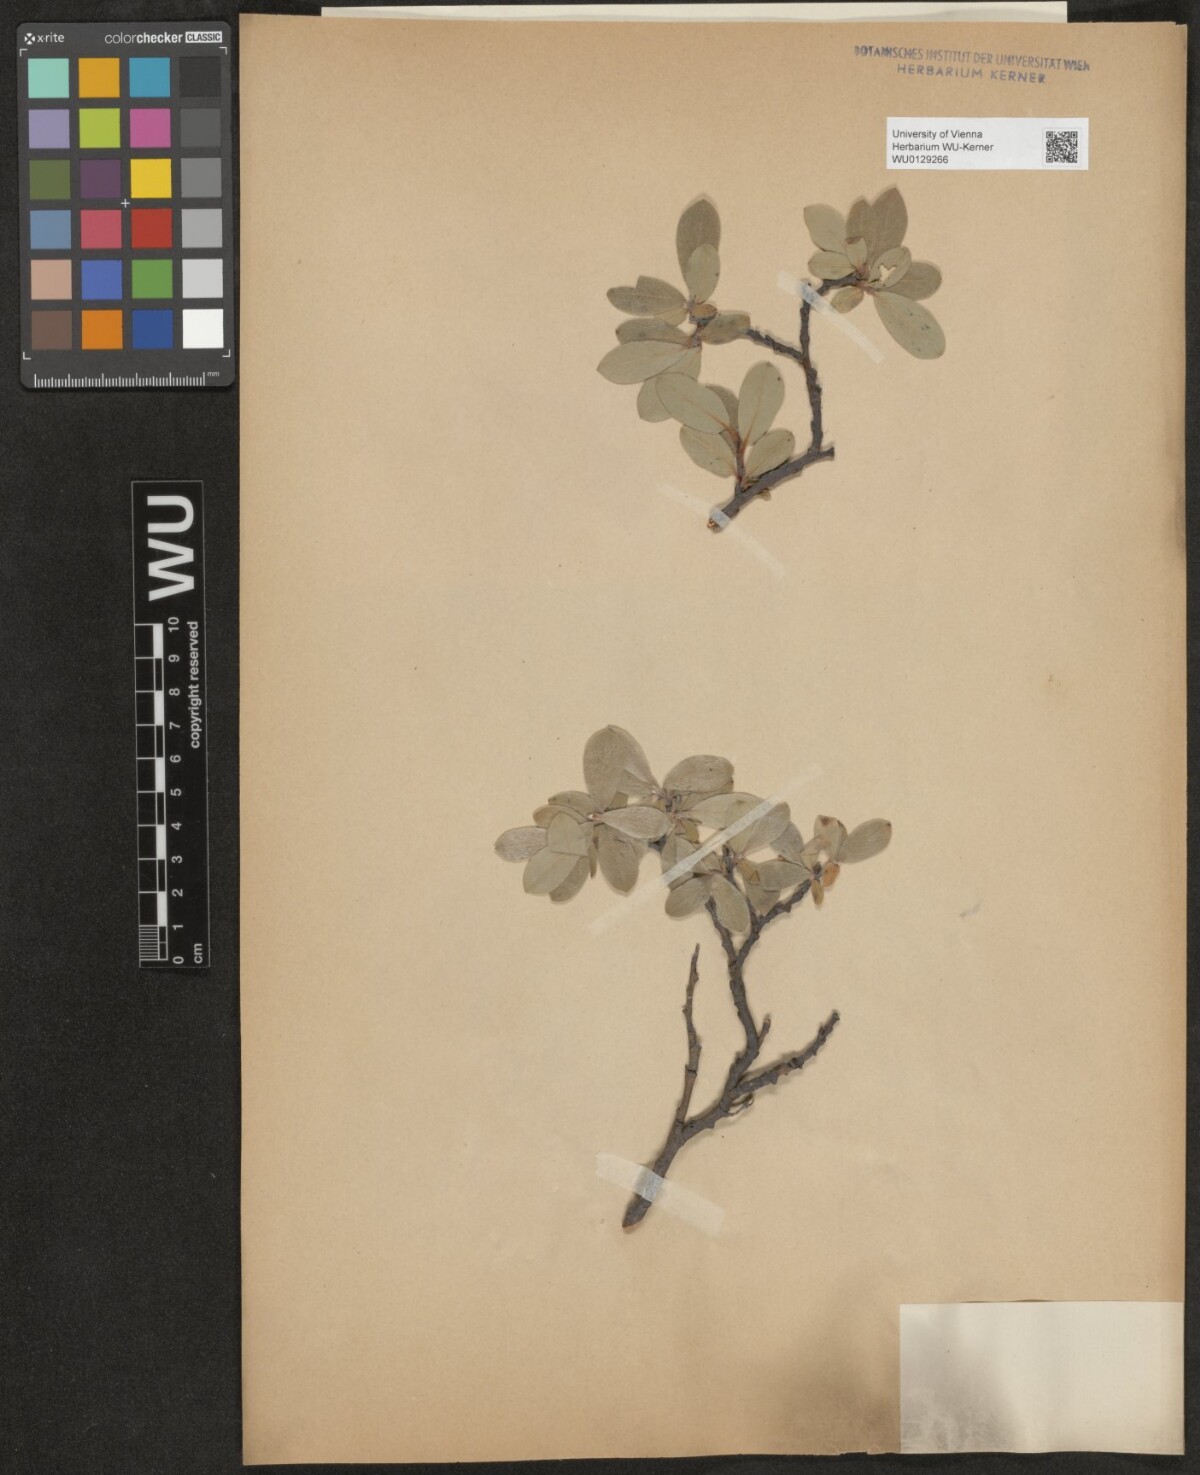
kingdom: Plantae
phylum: Tracheophyta
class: Magnoliopsida
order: Malpighiales
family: Salicaceae
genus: Salix
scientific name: Salix glauca
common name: Glaucous willow
